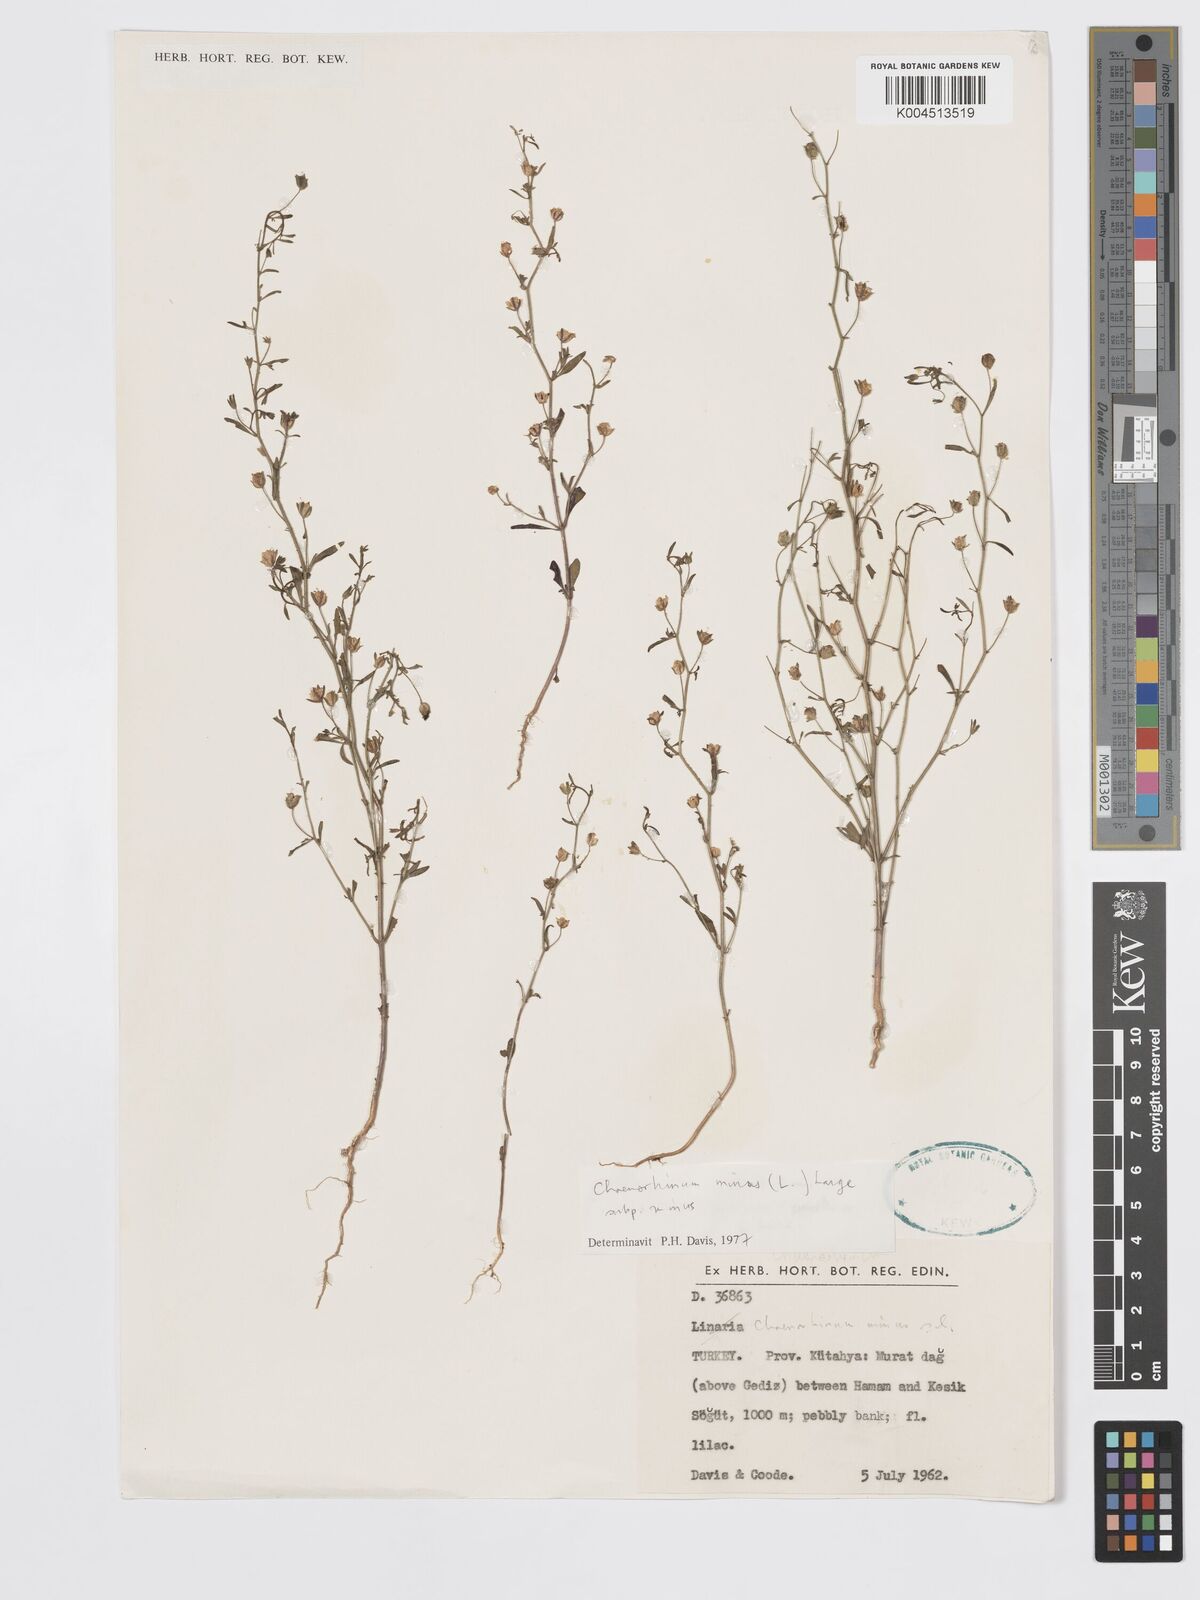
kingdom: Plantae
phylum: Tracheophyta
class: Magnoliopsida
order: Lamiales
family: Plantaginaceae
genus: Chaenorhinum
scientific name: Chaenorhinum minus
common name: Dwarf snapdragon
